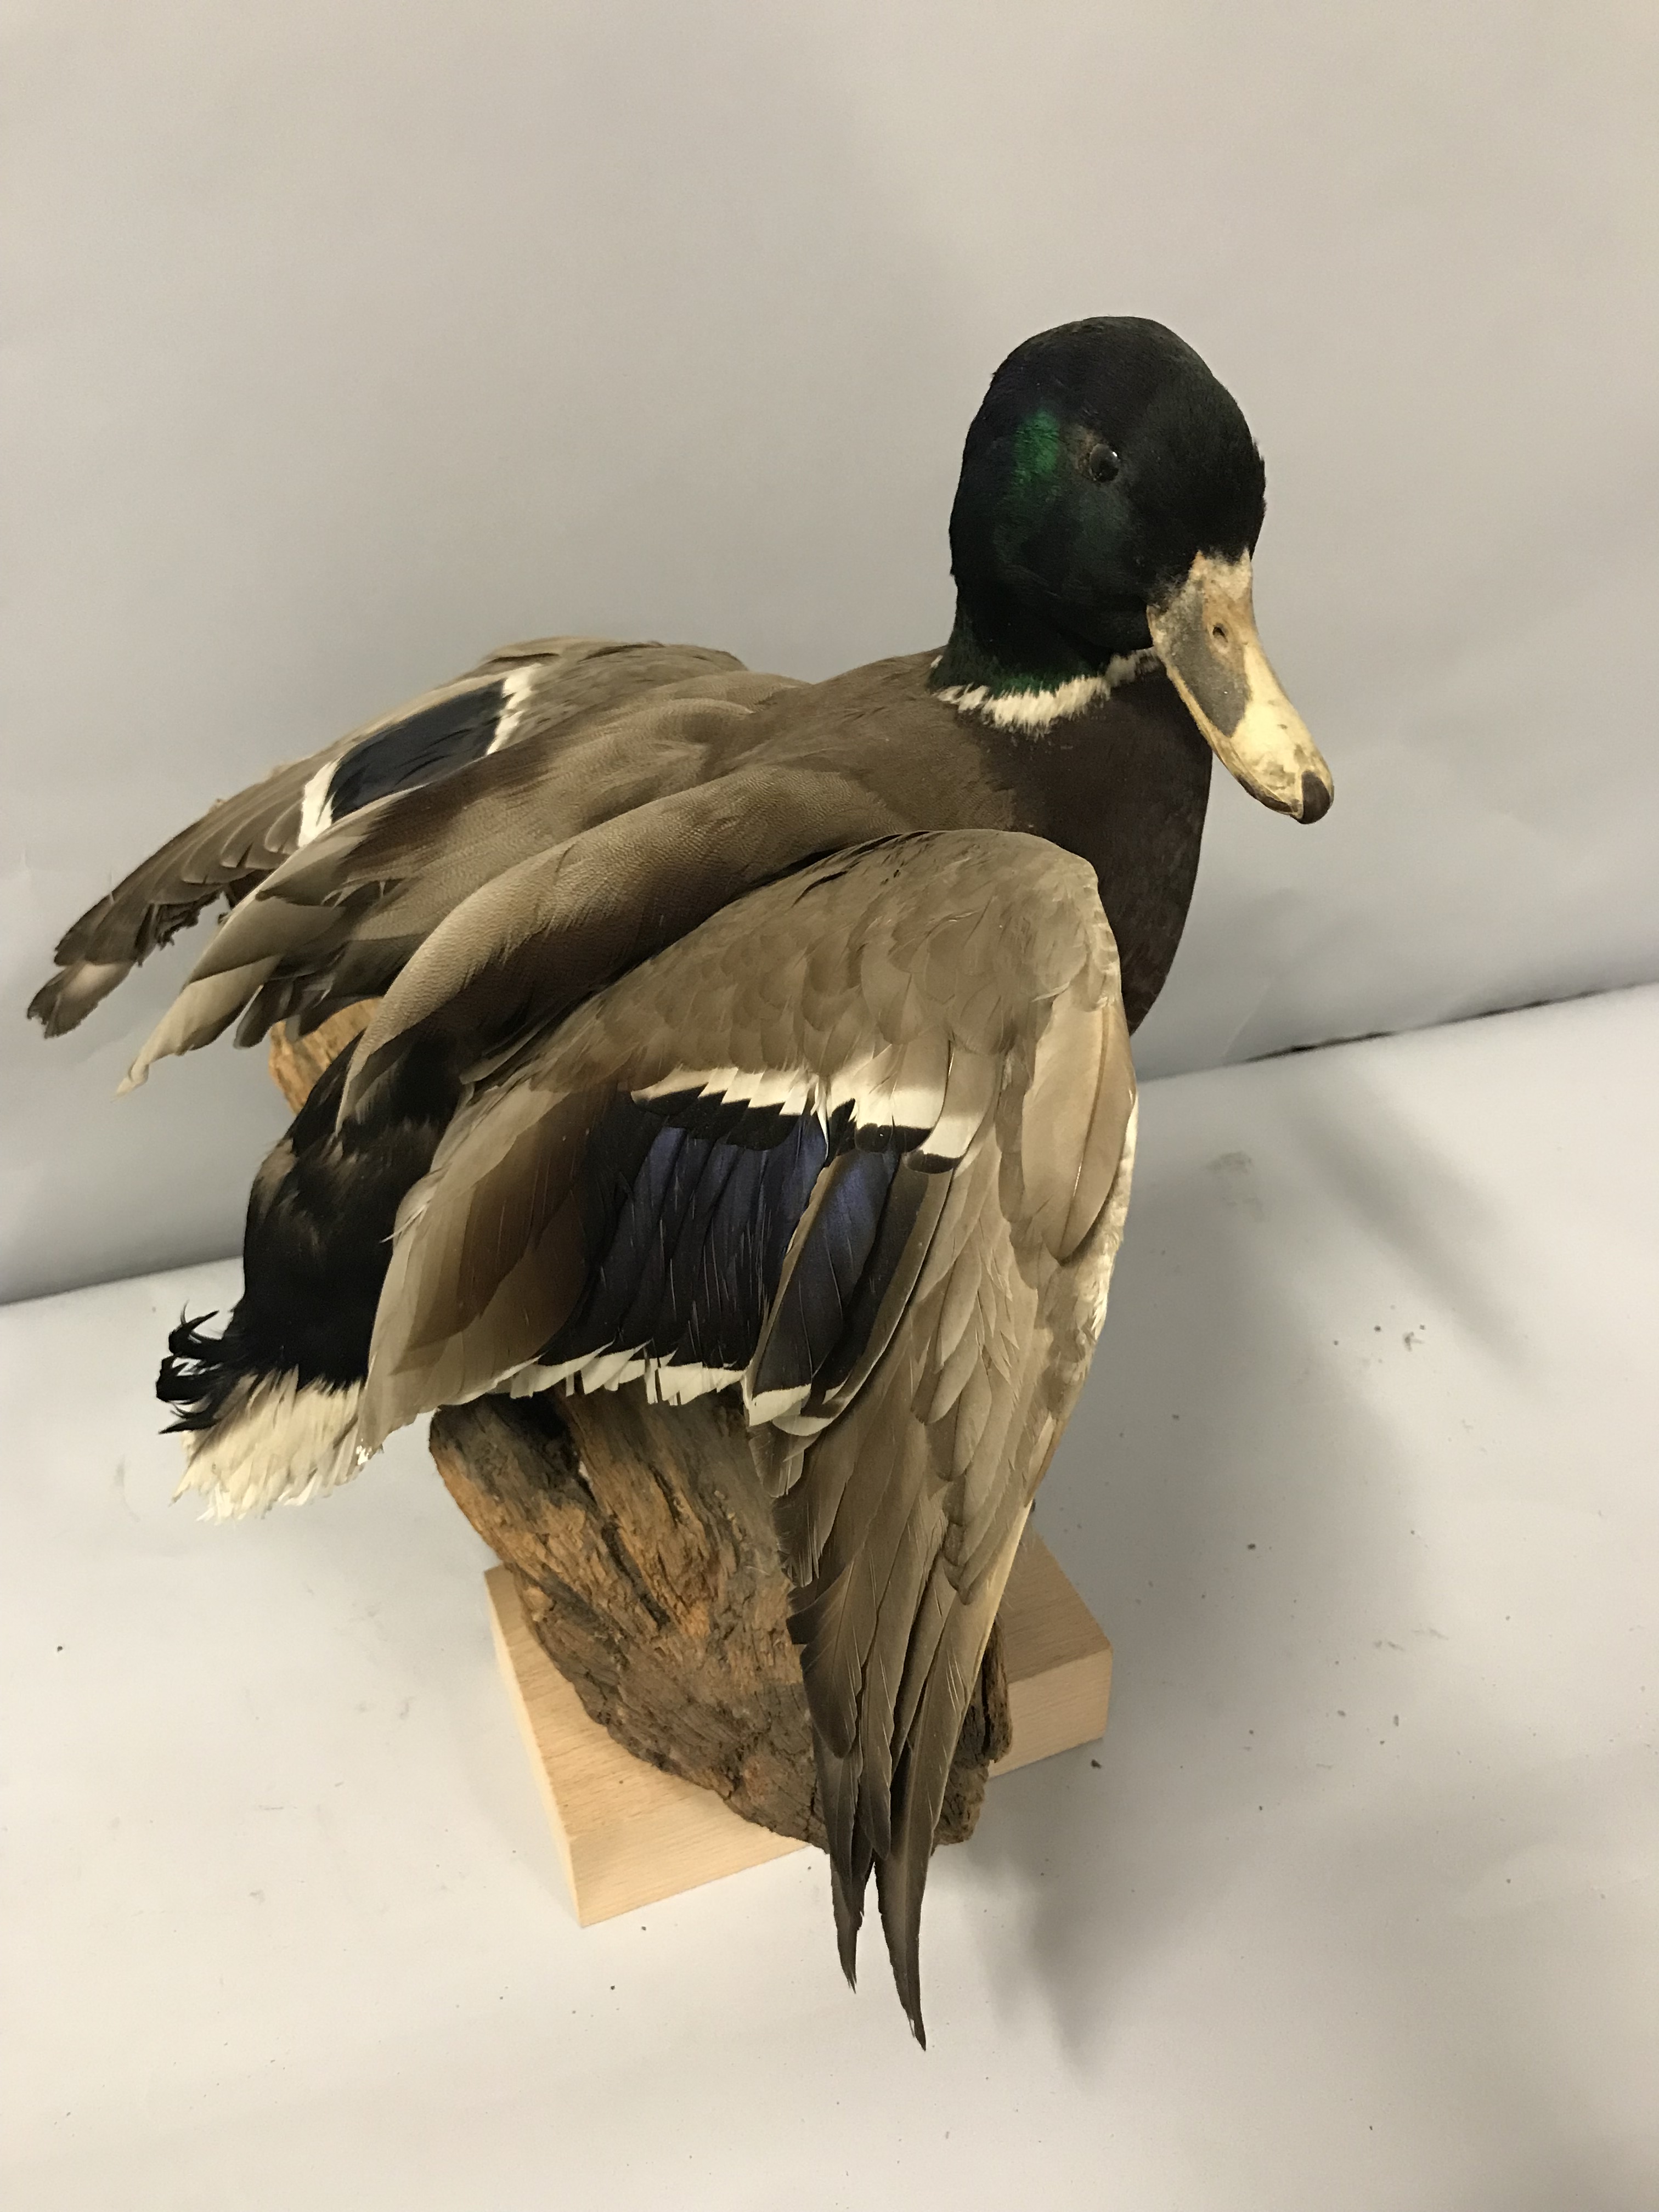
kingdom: Animalia
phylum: Chordata
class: Aves
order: Anseriformes
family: Anatidae
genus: Anas
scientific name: Anas platyrhynchos
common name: Mallard
